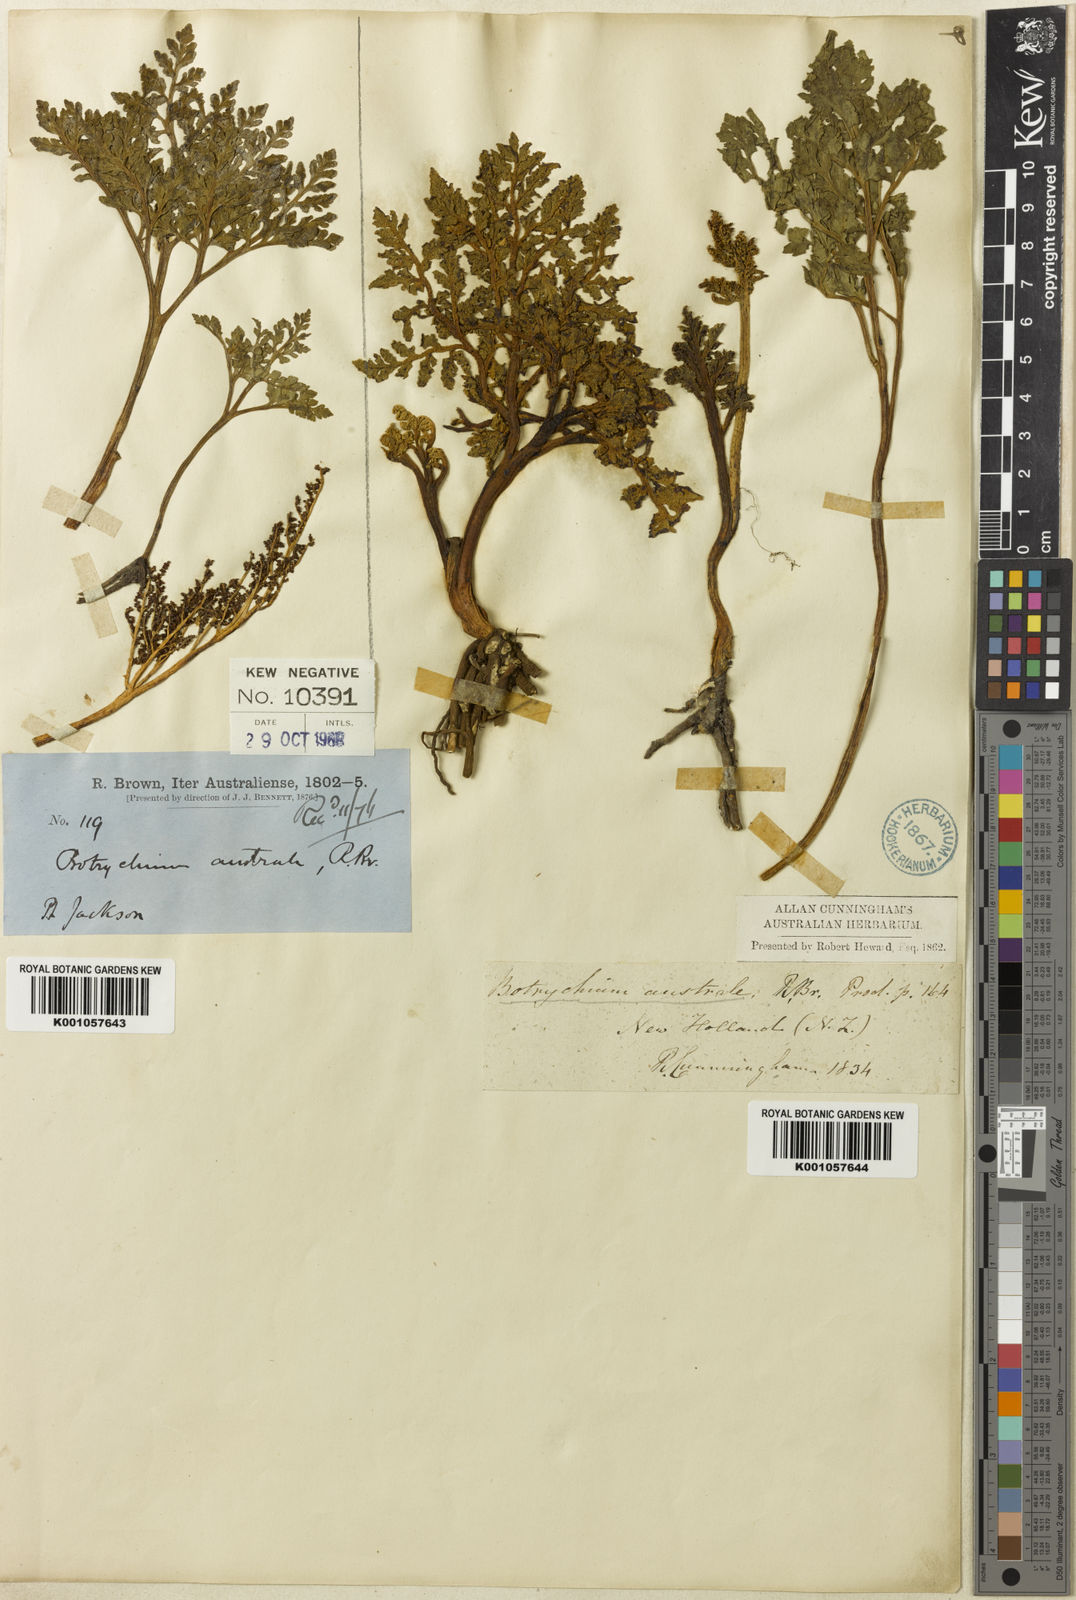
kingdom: Plantae
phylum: Tracheophyta
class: Polypodiopsida
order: Ophioglossales
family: Ophioglossaceae
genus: Sceptridium
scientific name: Sceptridium australe
